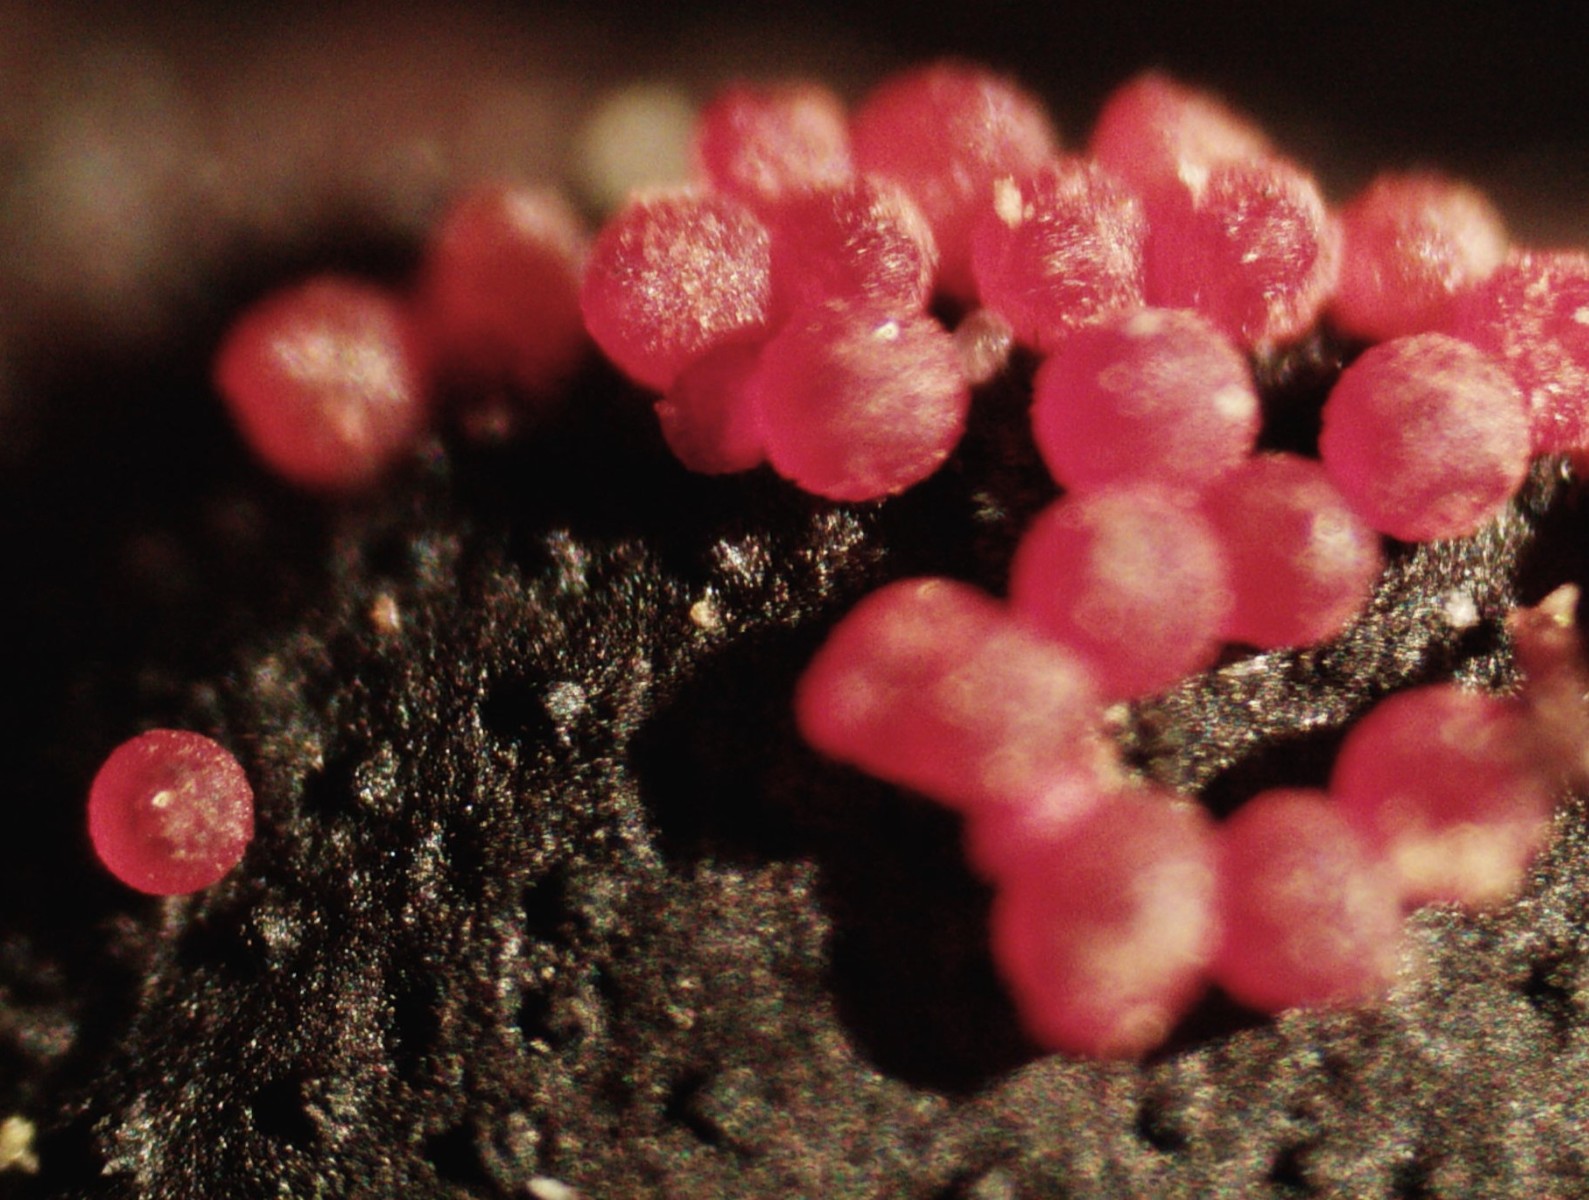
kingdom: Fungi
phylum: Ascomycota
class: Sordariomycetes
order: Hypocreales
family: Nectriaceae
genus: Dialonectria
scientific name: Dialonectria diatrypicola
